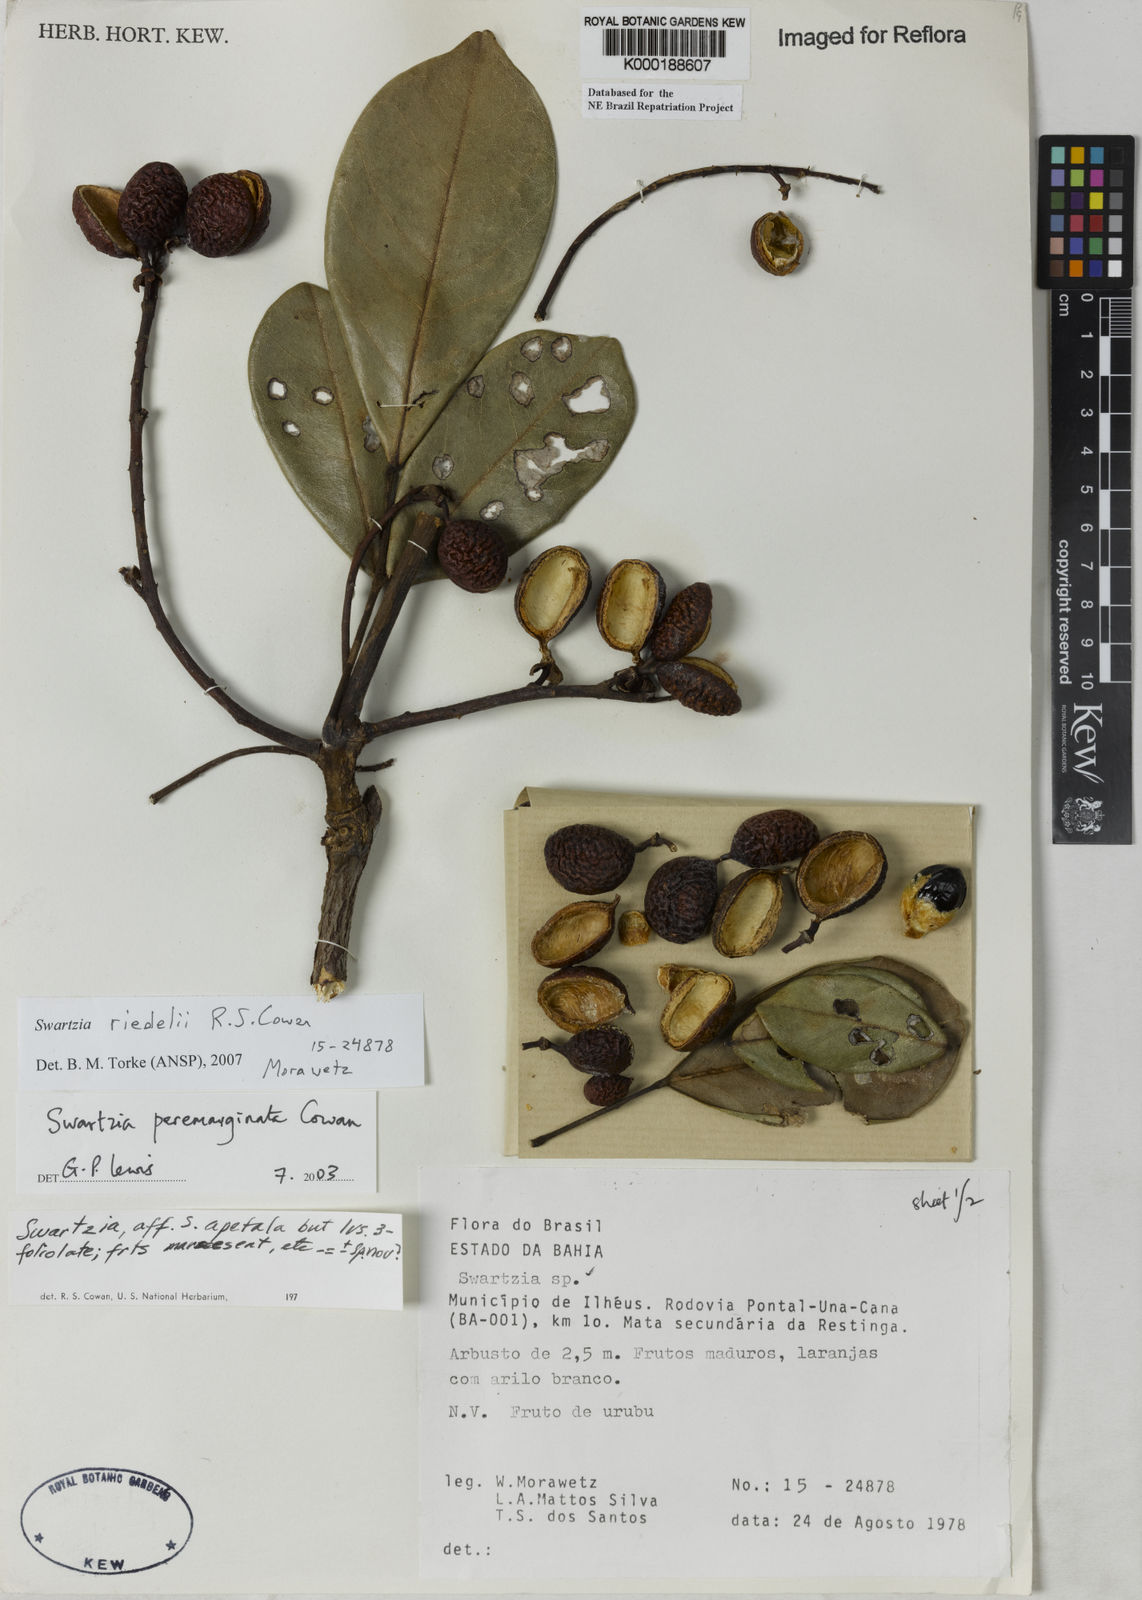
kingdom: Plantae
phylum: Tracheophyta
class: Magnoliopsida
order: Fabales
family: Fabaceae
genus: Swartzia
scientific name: Swartzia riedelii
